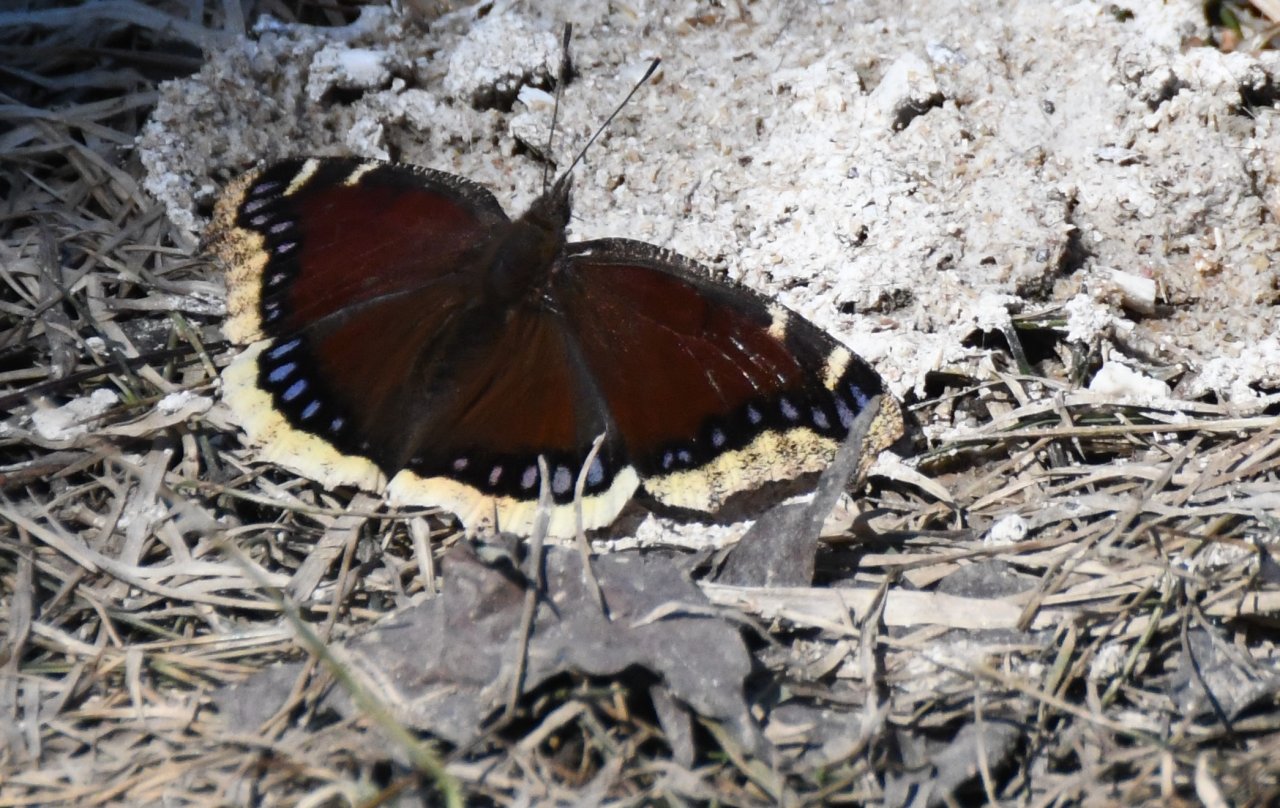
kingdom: Animalia
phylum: Arthropoda
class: Insecta
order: Lepidoptera
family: Nymphalidae
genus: Nymphalis
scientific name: Nymphalis antiopa
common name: Mourning Cloak
